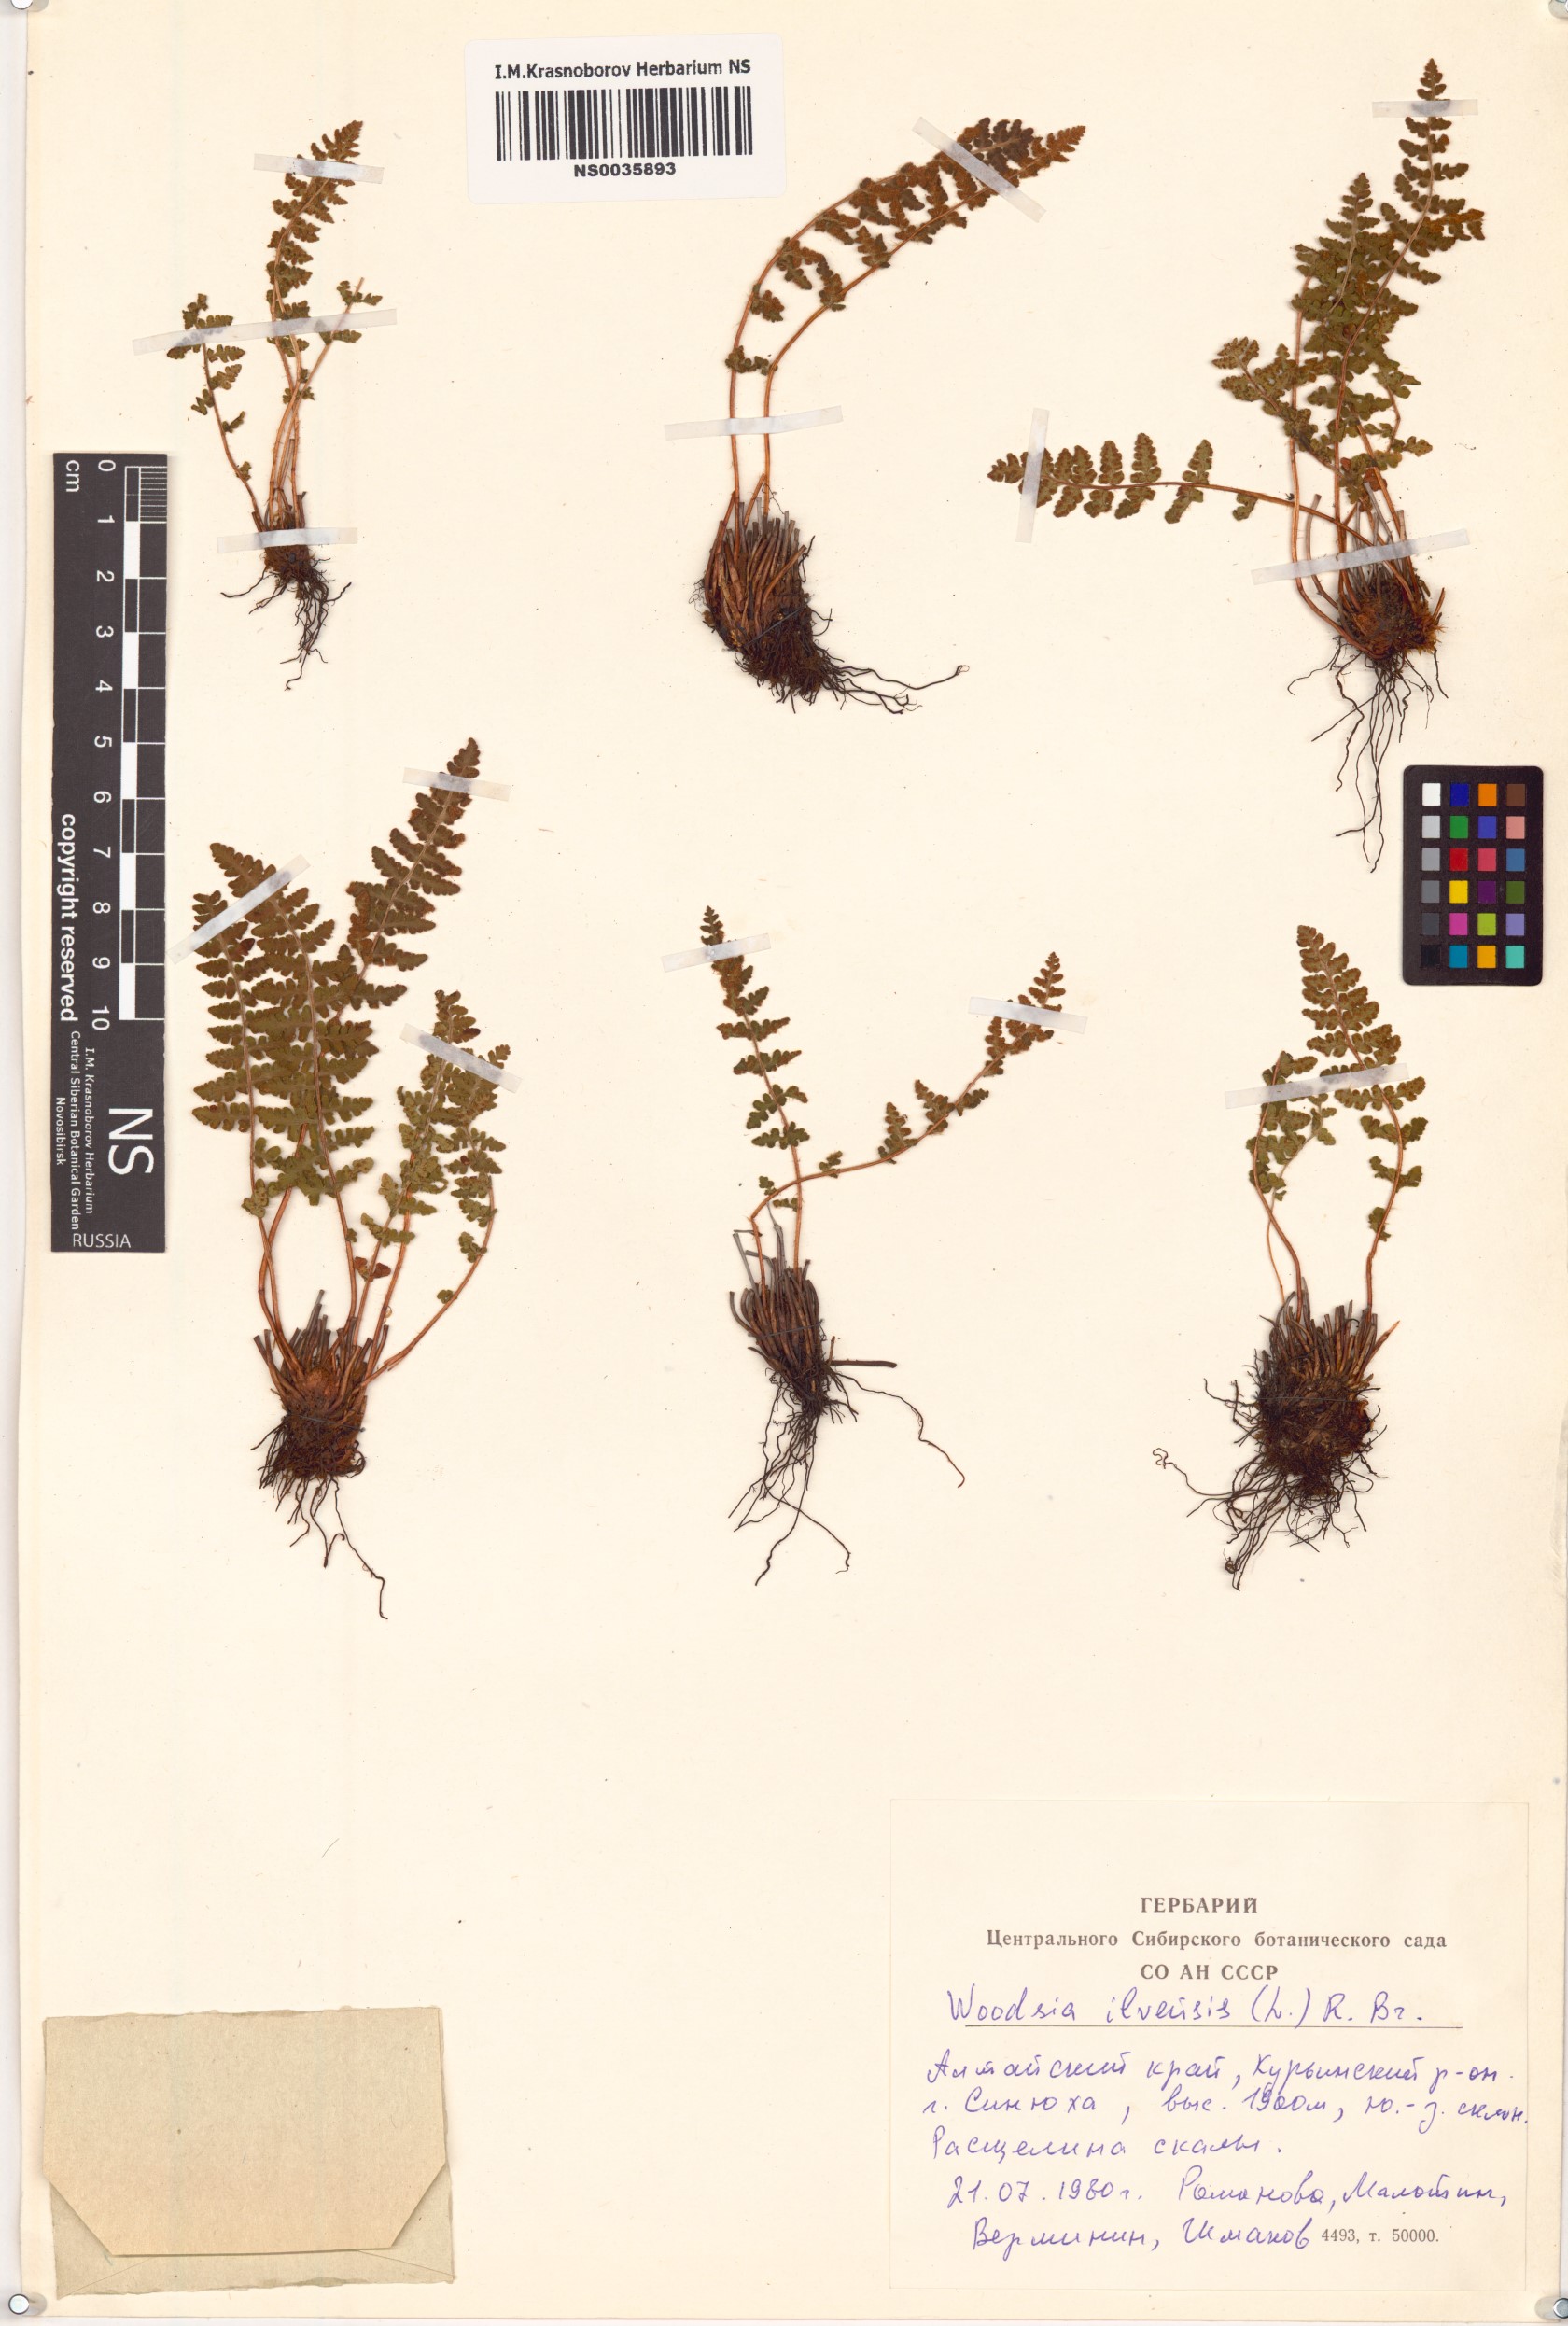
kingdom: Plantae
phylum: Tracheophyta
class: Polypodiopsida
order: Polypodiales
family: Woodsiaceae
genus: Woodsia
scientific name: Woodsia ilvensis
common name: Fragrant woodsia
